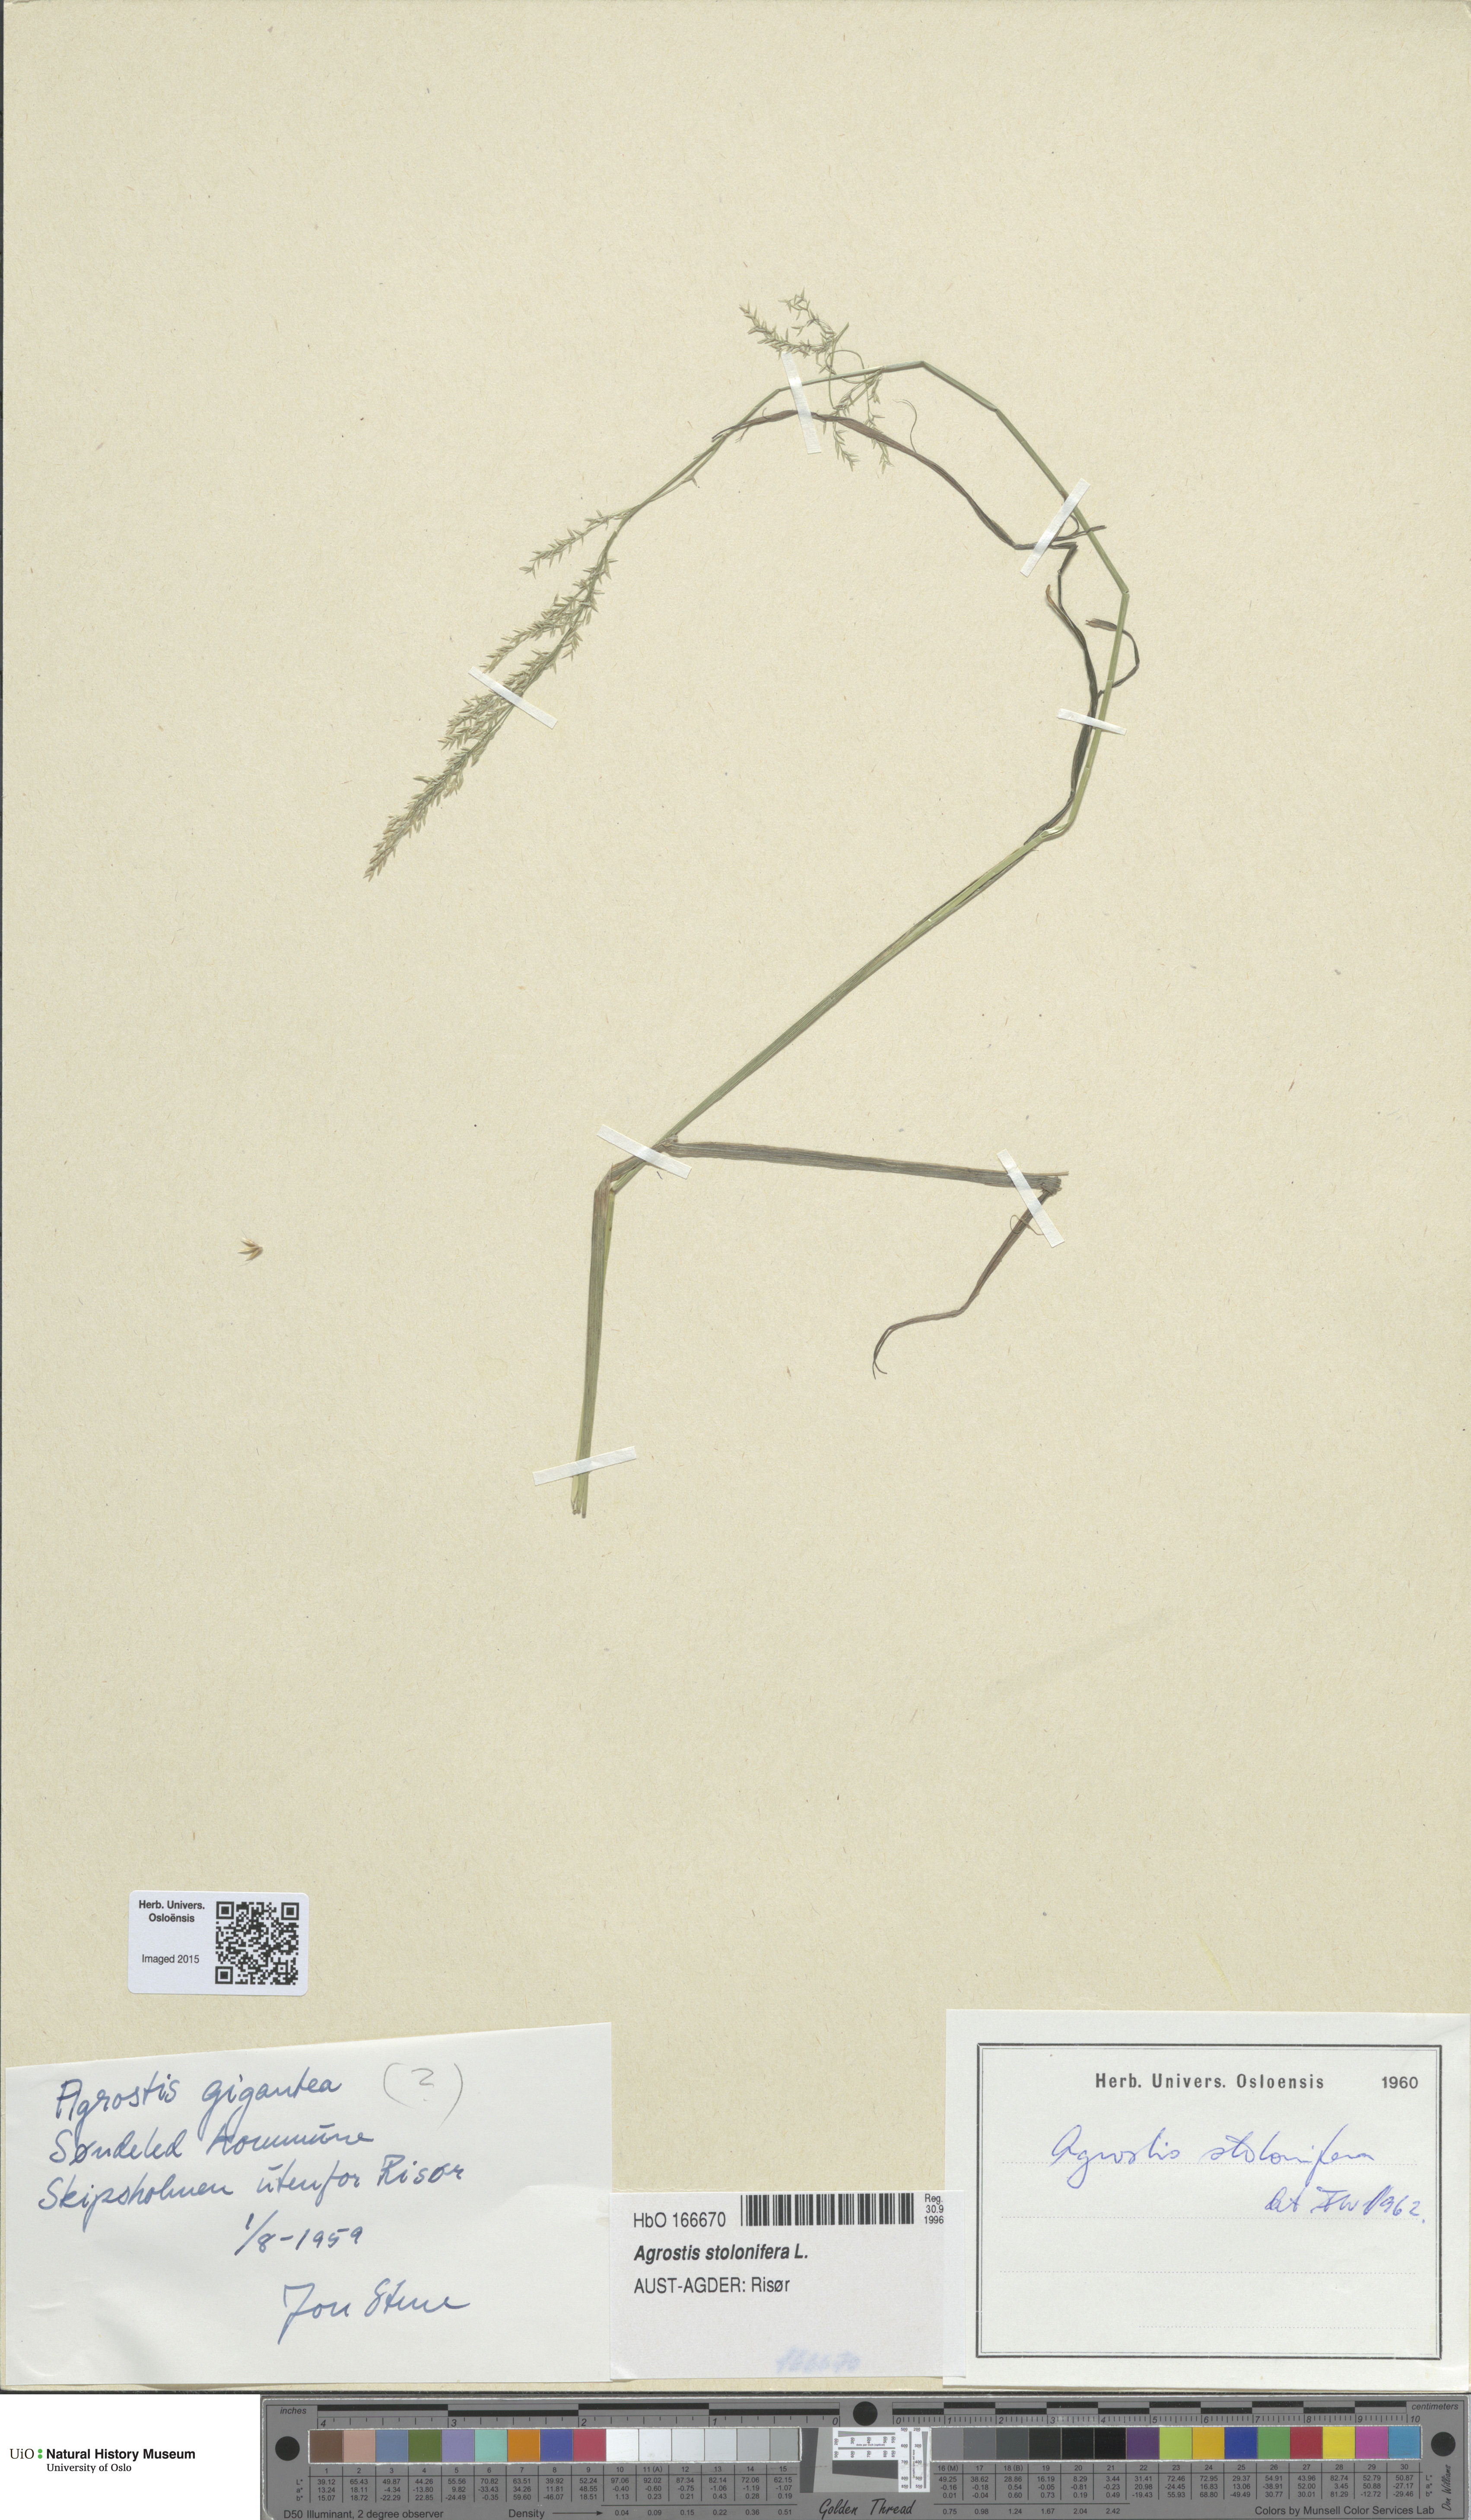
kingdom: Plantae
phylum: Tracheophyta
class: Liliopsida
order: Poales
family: Poaceae
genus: Agrostis
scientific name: Agrostis stolonifera
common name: Creeping bentgrass
